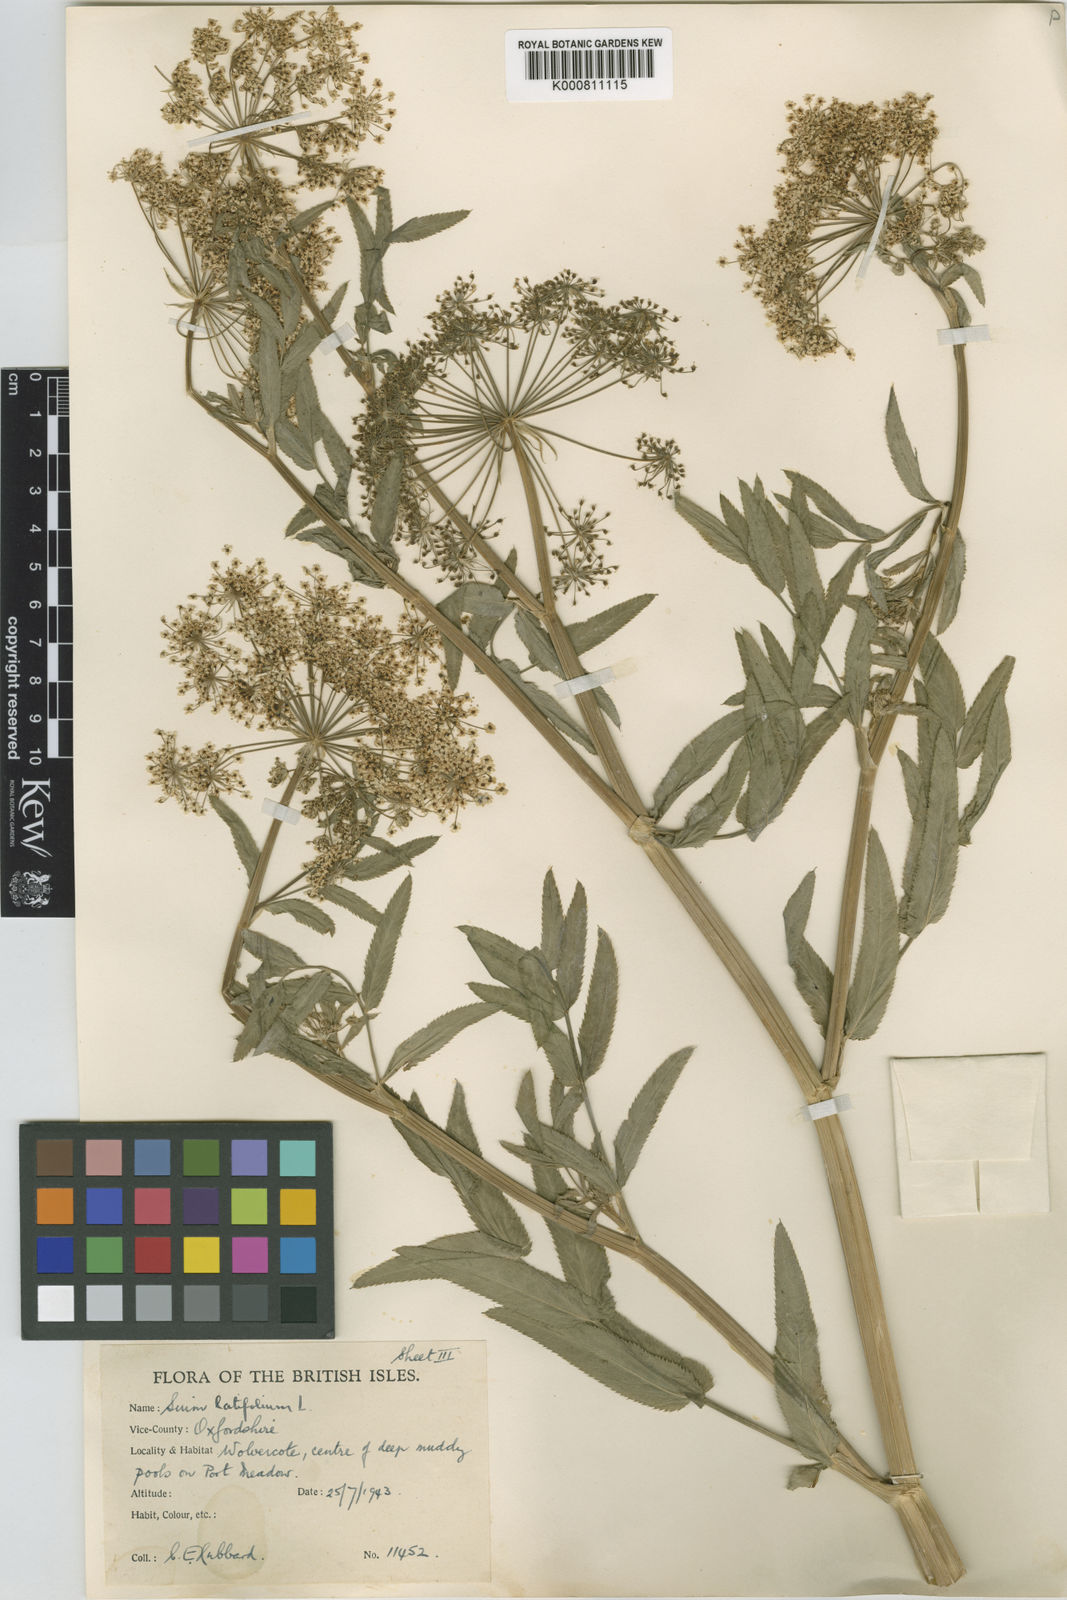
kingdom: Plantae
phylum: Tracheophyta
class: Magnoliopsida
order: Apiales
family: Apiaceae
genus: Sium
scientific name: Sium latifolium
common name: Greater water-parsnip
